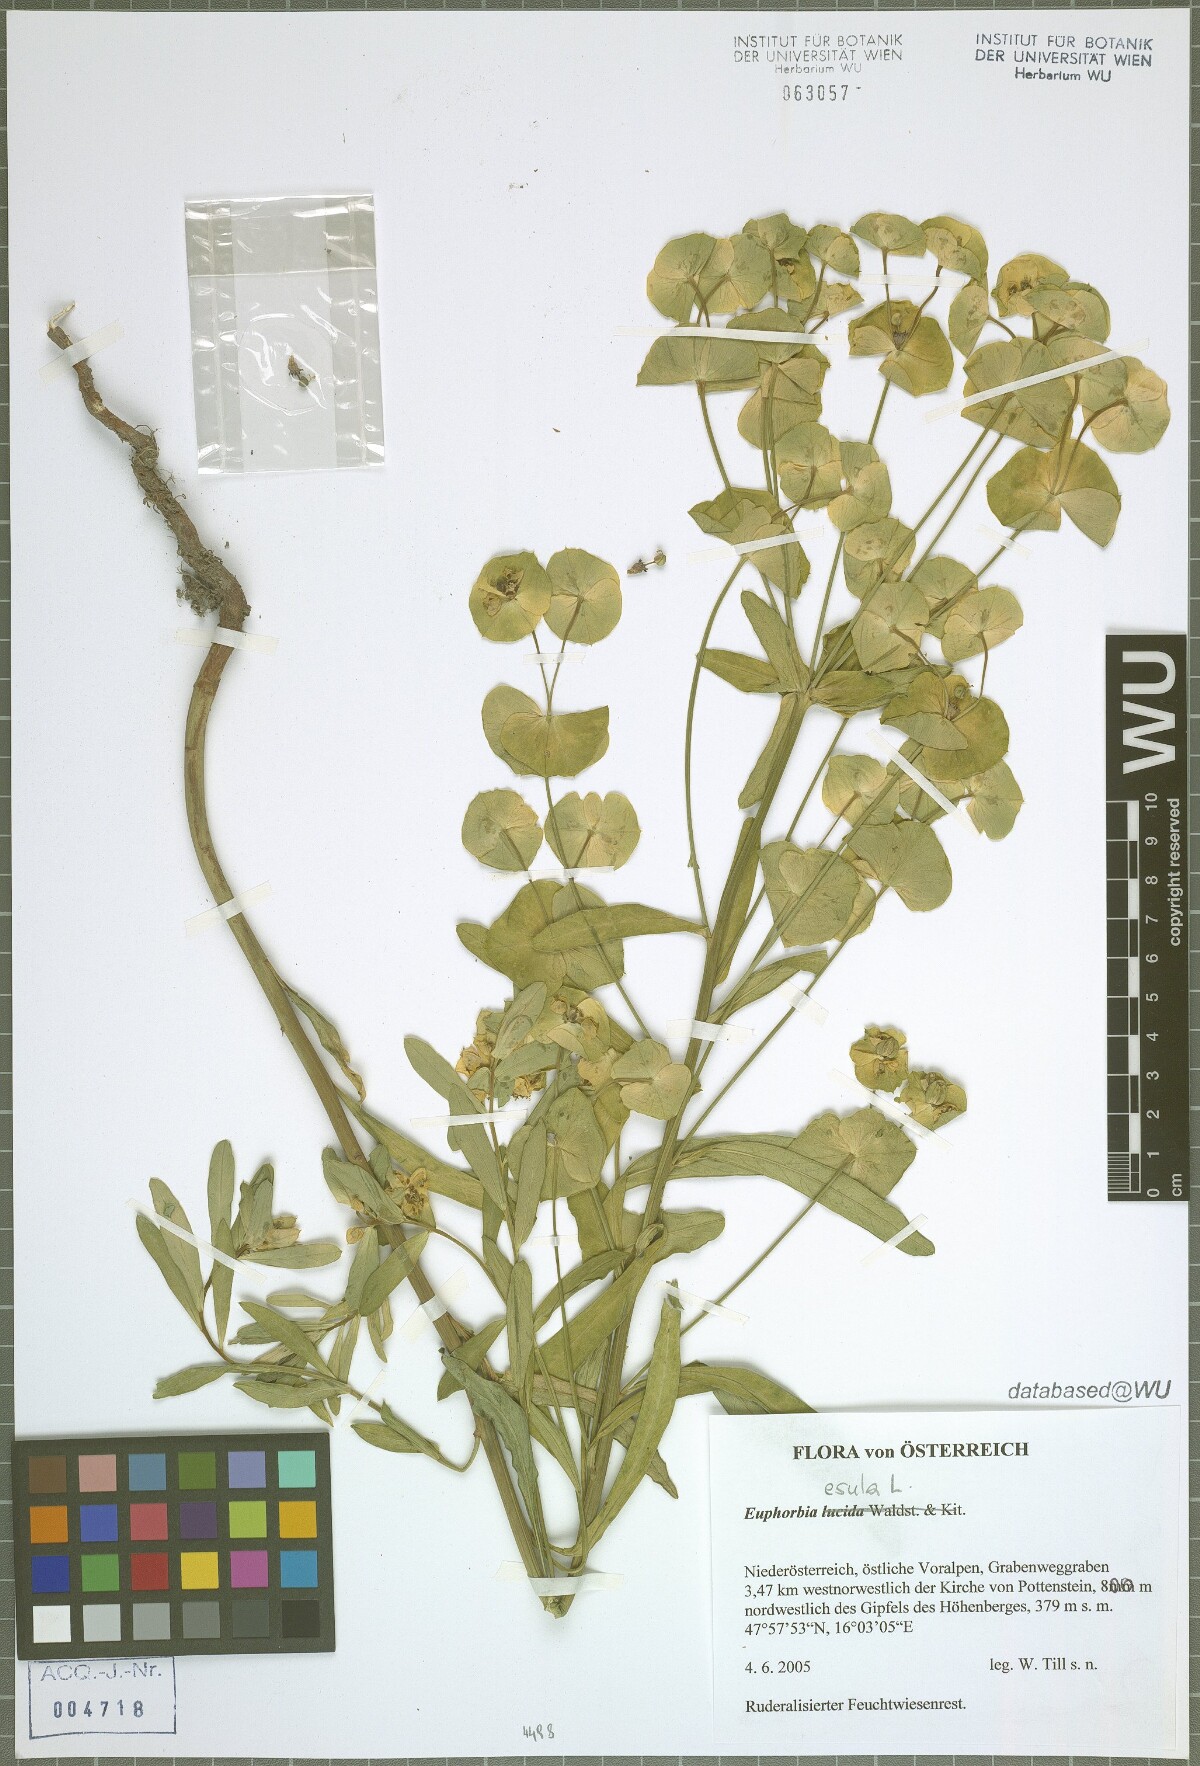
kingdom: Plantae
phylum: Tracheophyta
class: Magnoliopsida
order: Malpighiales
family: Euphorbiaceae
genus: Euphorbia
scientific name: Euphorbia esula
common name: Leafy spurge
